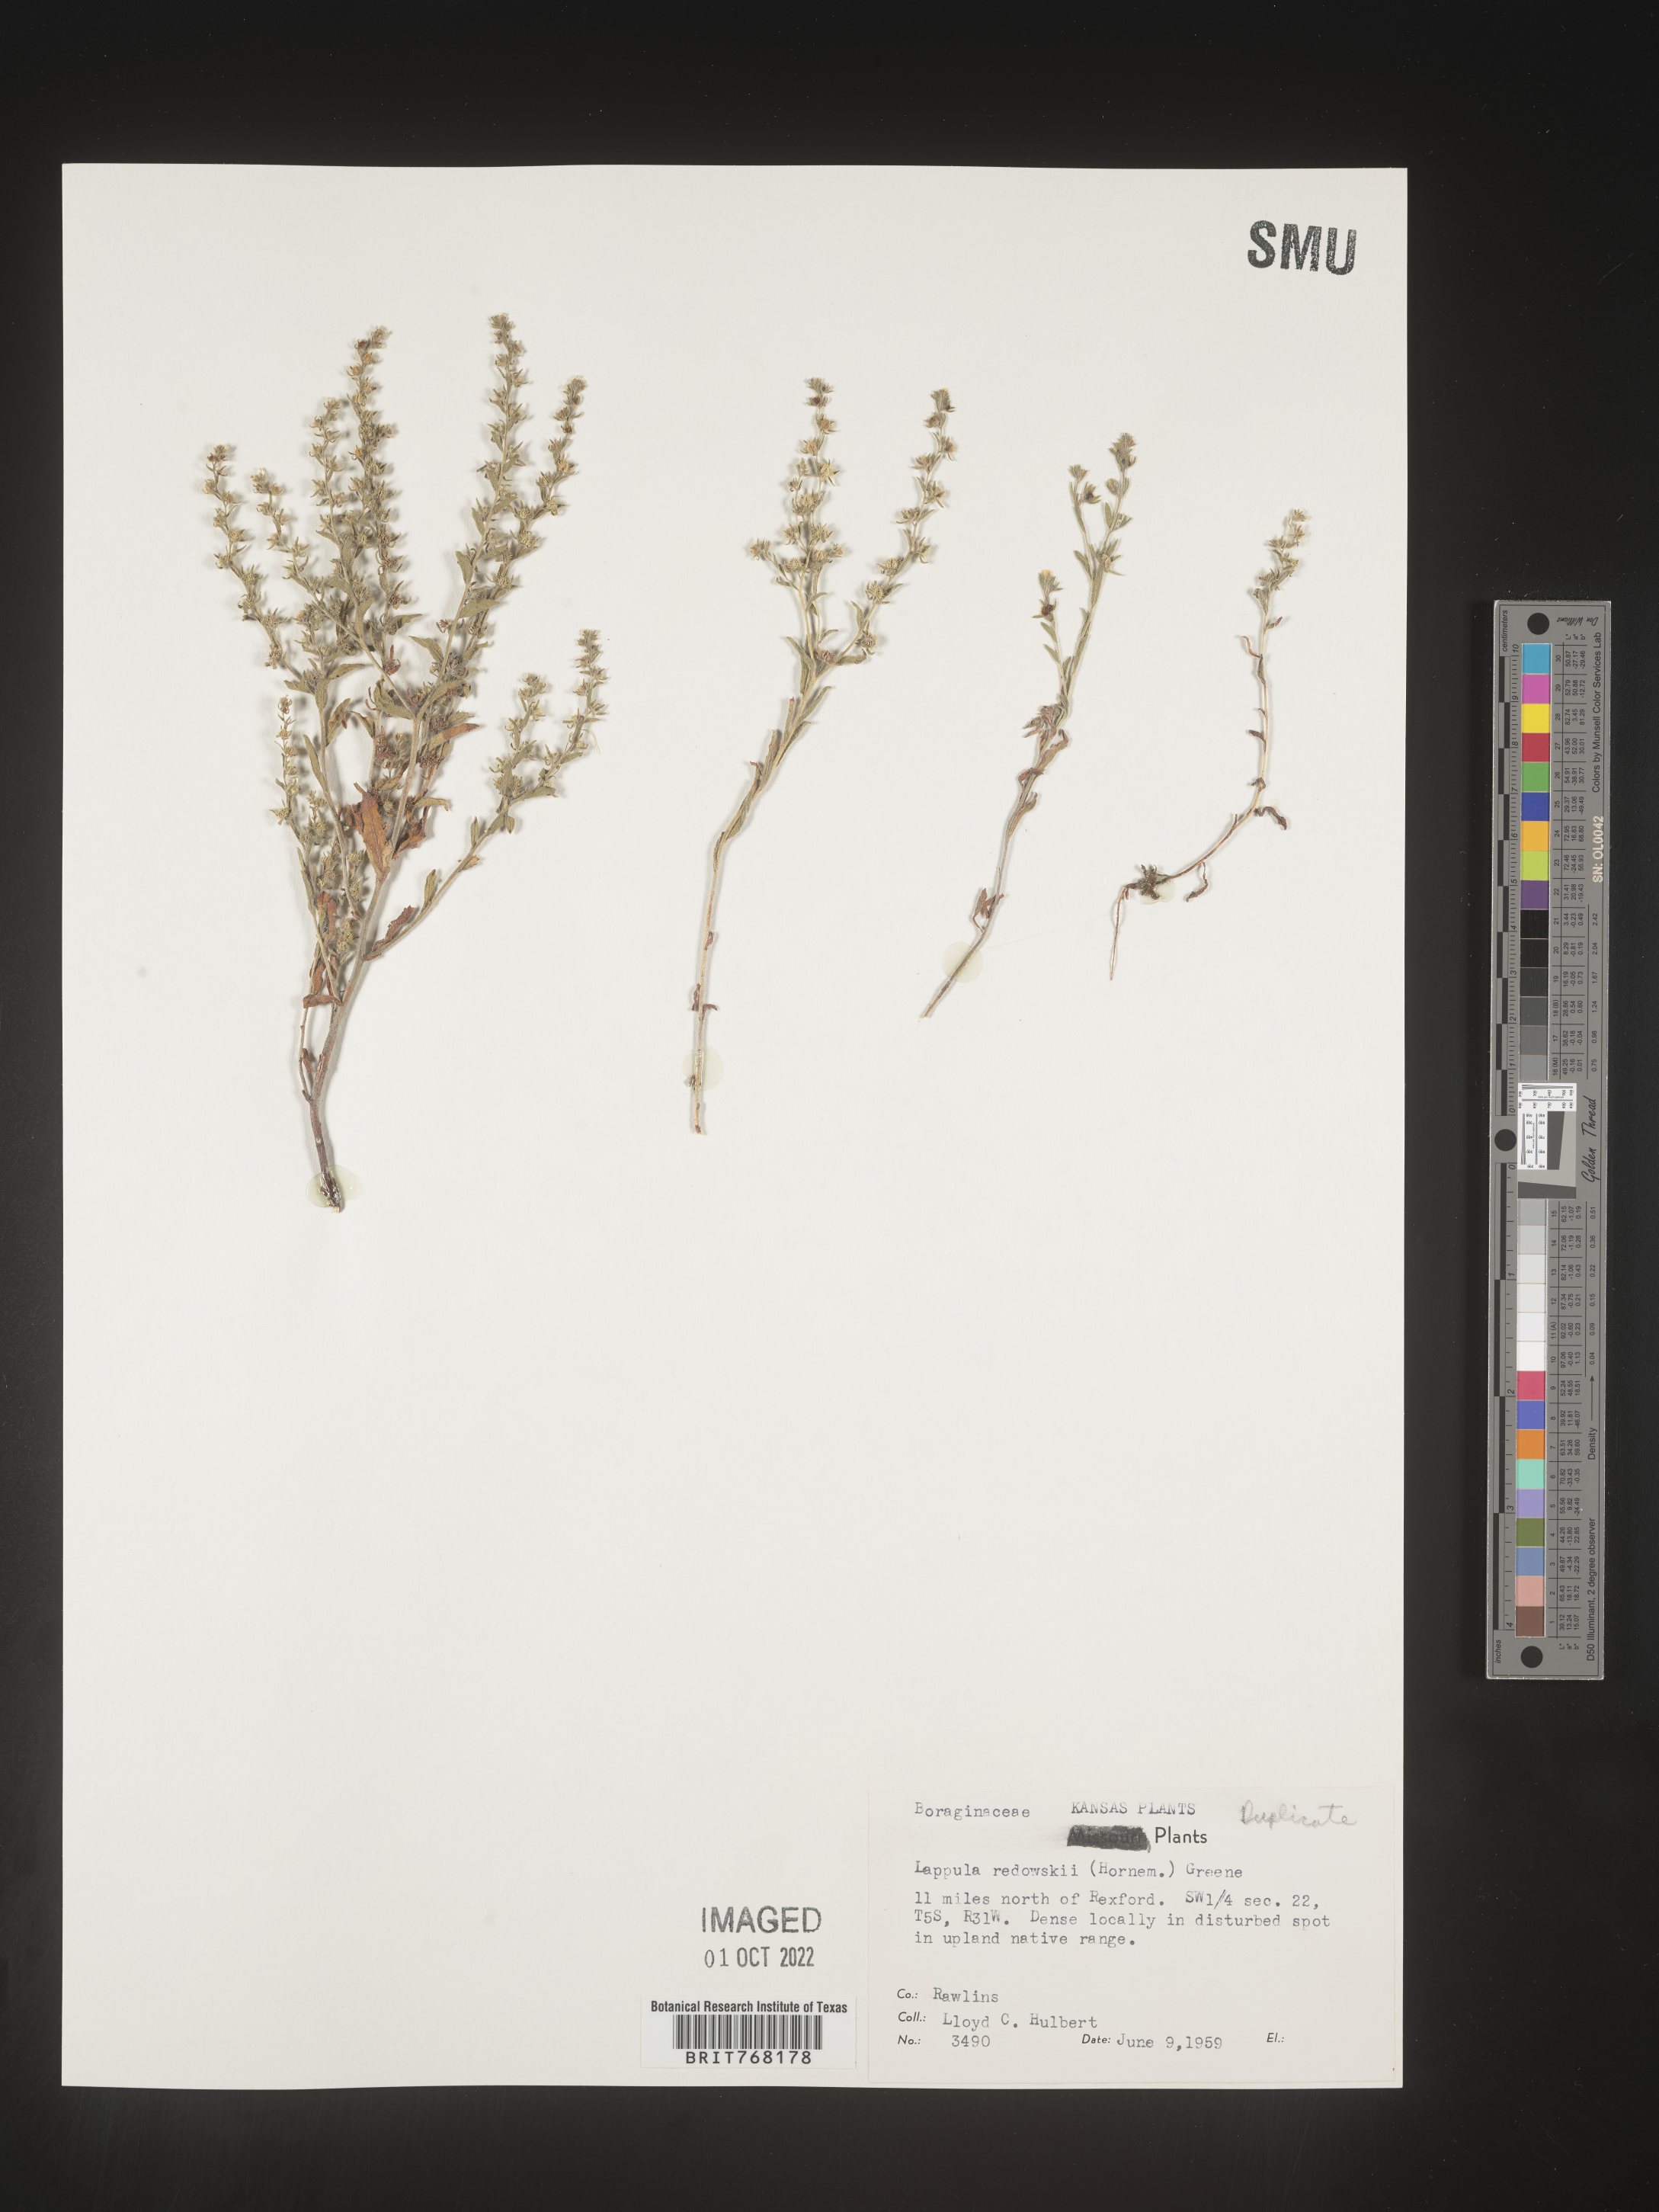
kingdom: Plantae
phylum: Tracheophyta
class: Magnoliopsida
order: Boraginales
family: Boraginaceae
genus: Lappula
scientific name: Lappula redowskii
